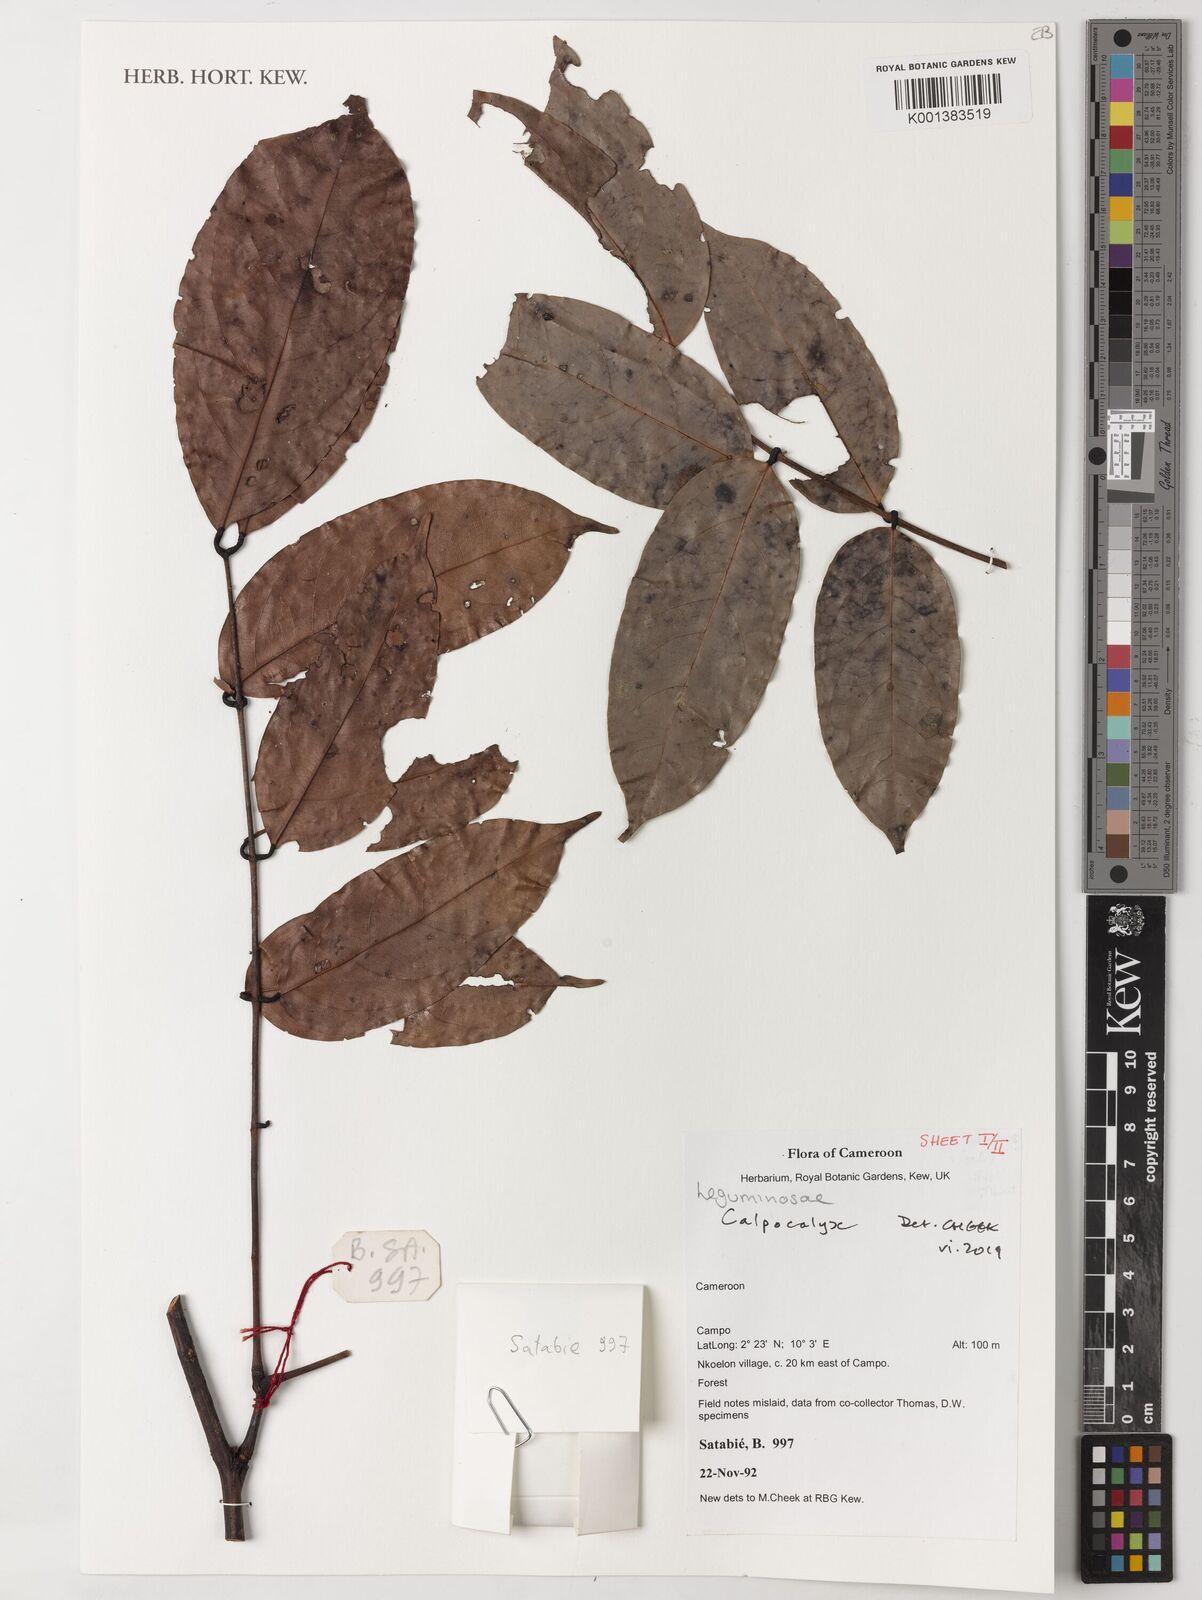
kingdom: Plantae
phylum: Tracheophyta
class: Magnoliopsida
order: Fabales
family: Fabaceae
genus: Calpocalyx
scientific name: Calpocalyx dinklagei
